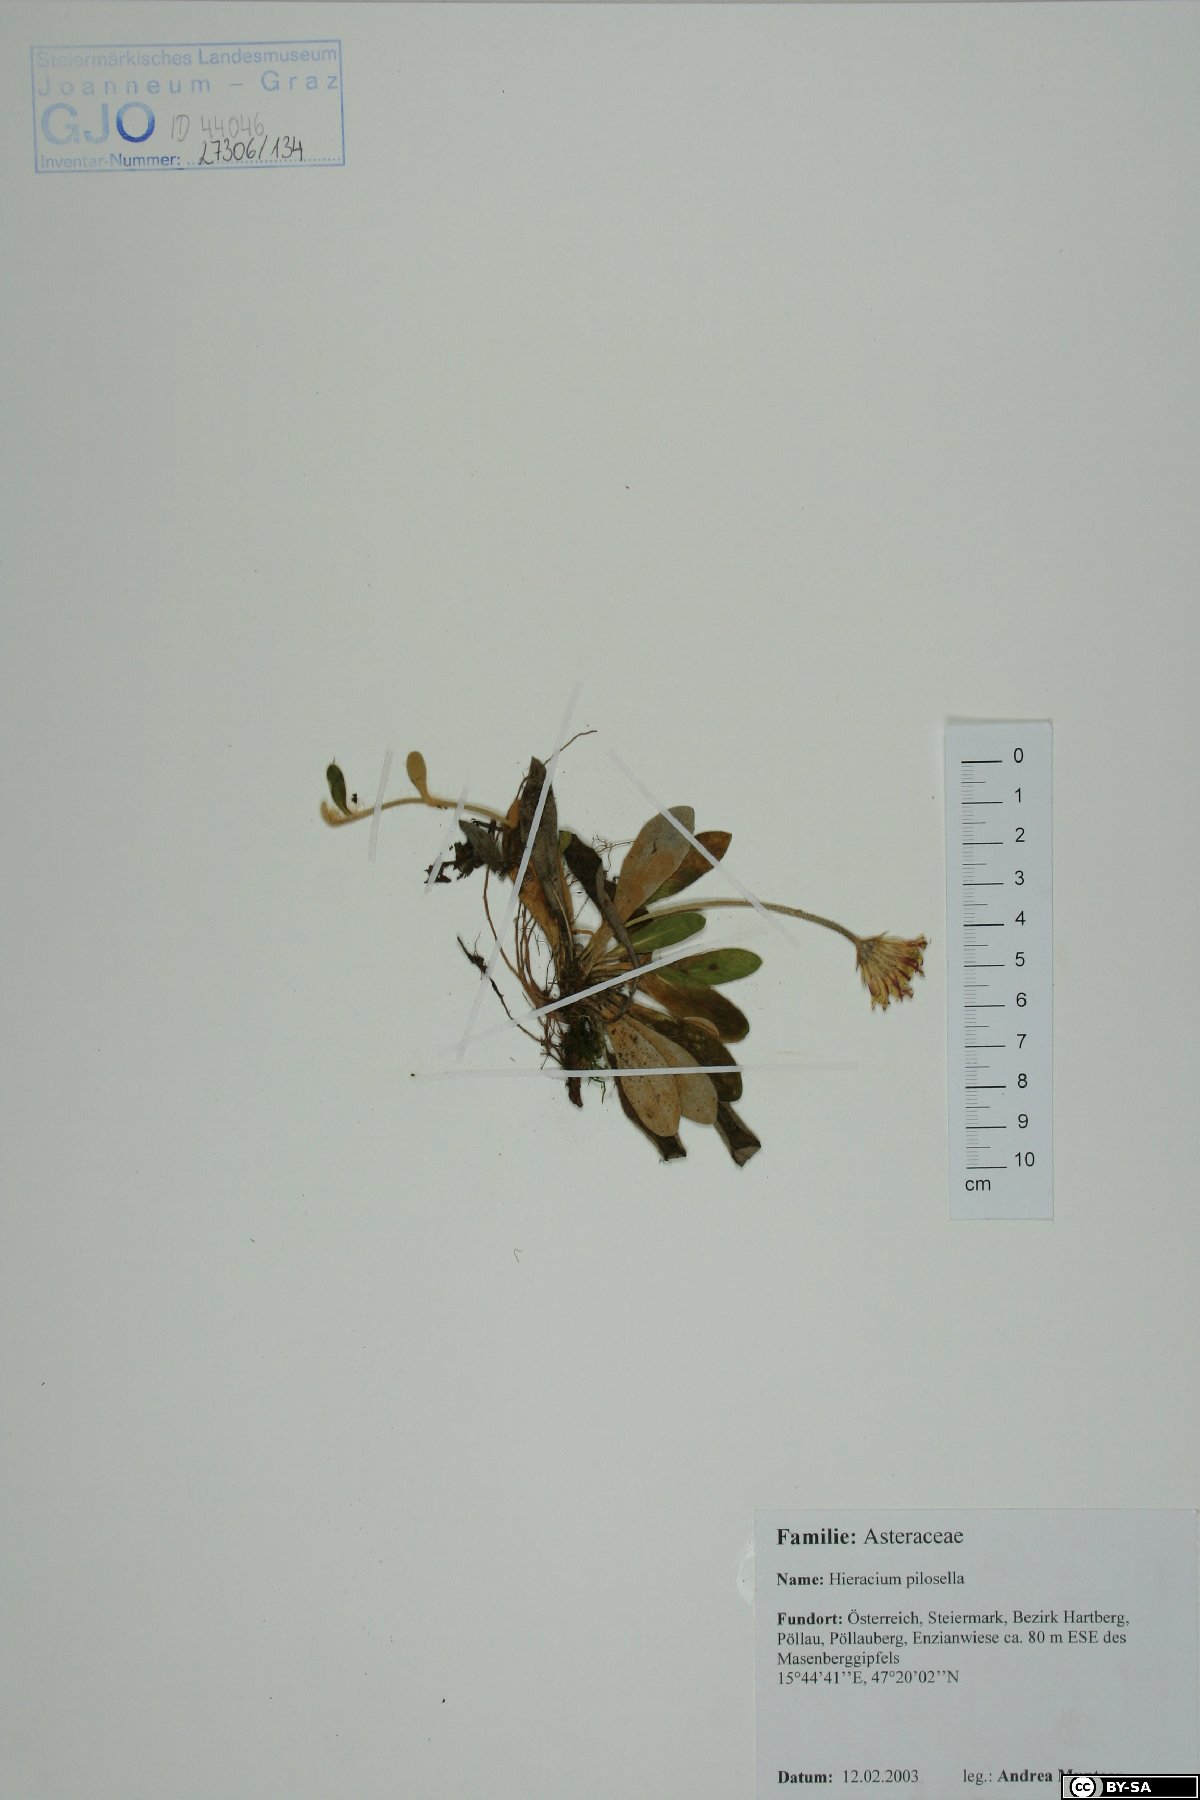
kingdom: Plantae
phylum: Tracheophyta
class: Magnoliopsida
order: Asterales
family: Asteraceae
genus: Pilosella
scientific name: Pilosella officinarum
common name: Mouse-ear hawkweed
